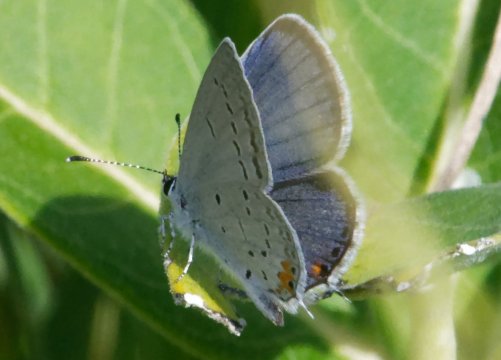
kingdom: Animalia
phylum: Arthropoda
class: Insecta
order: Lepidoptera
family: Lycaenidae
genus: Elkalyce
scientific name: Elkalyce comyntas
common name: Eastern Tailed-Blue
